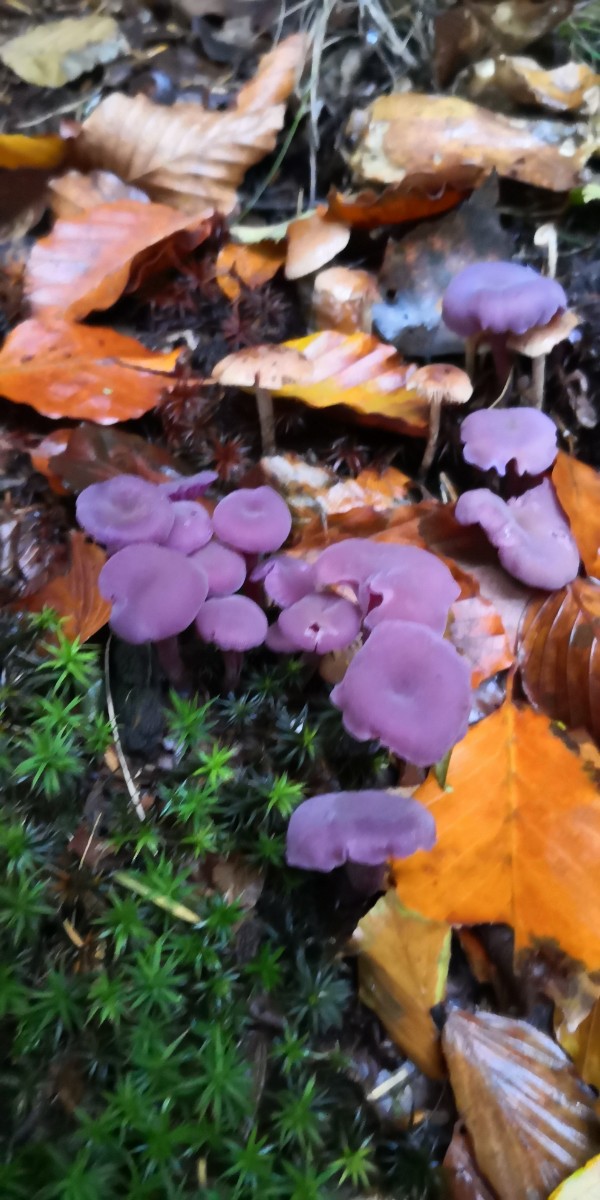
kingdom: Fungi
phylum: Basidiomycota
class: Agaricomycetes
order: Agaricales
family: Hydnangiaceae
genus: Laccaria
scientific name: Laccaria amethystina
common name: violet ametysthat
